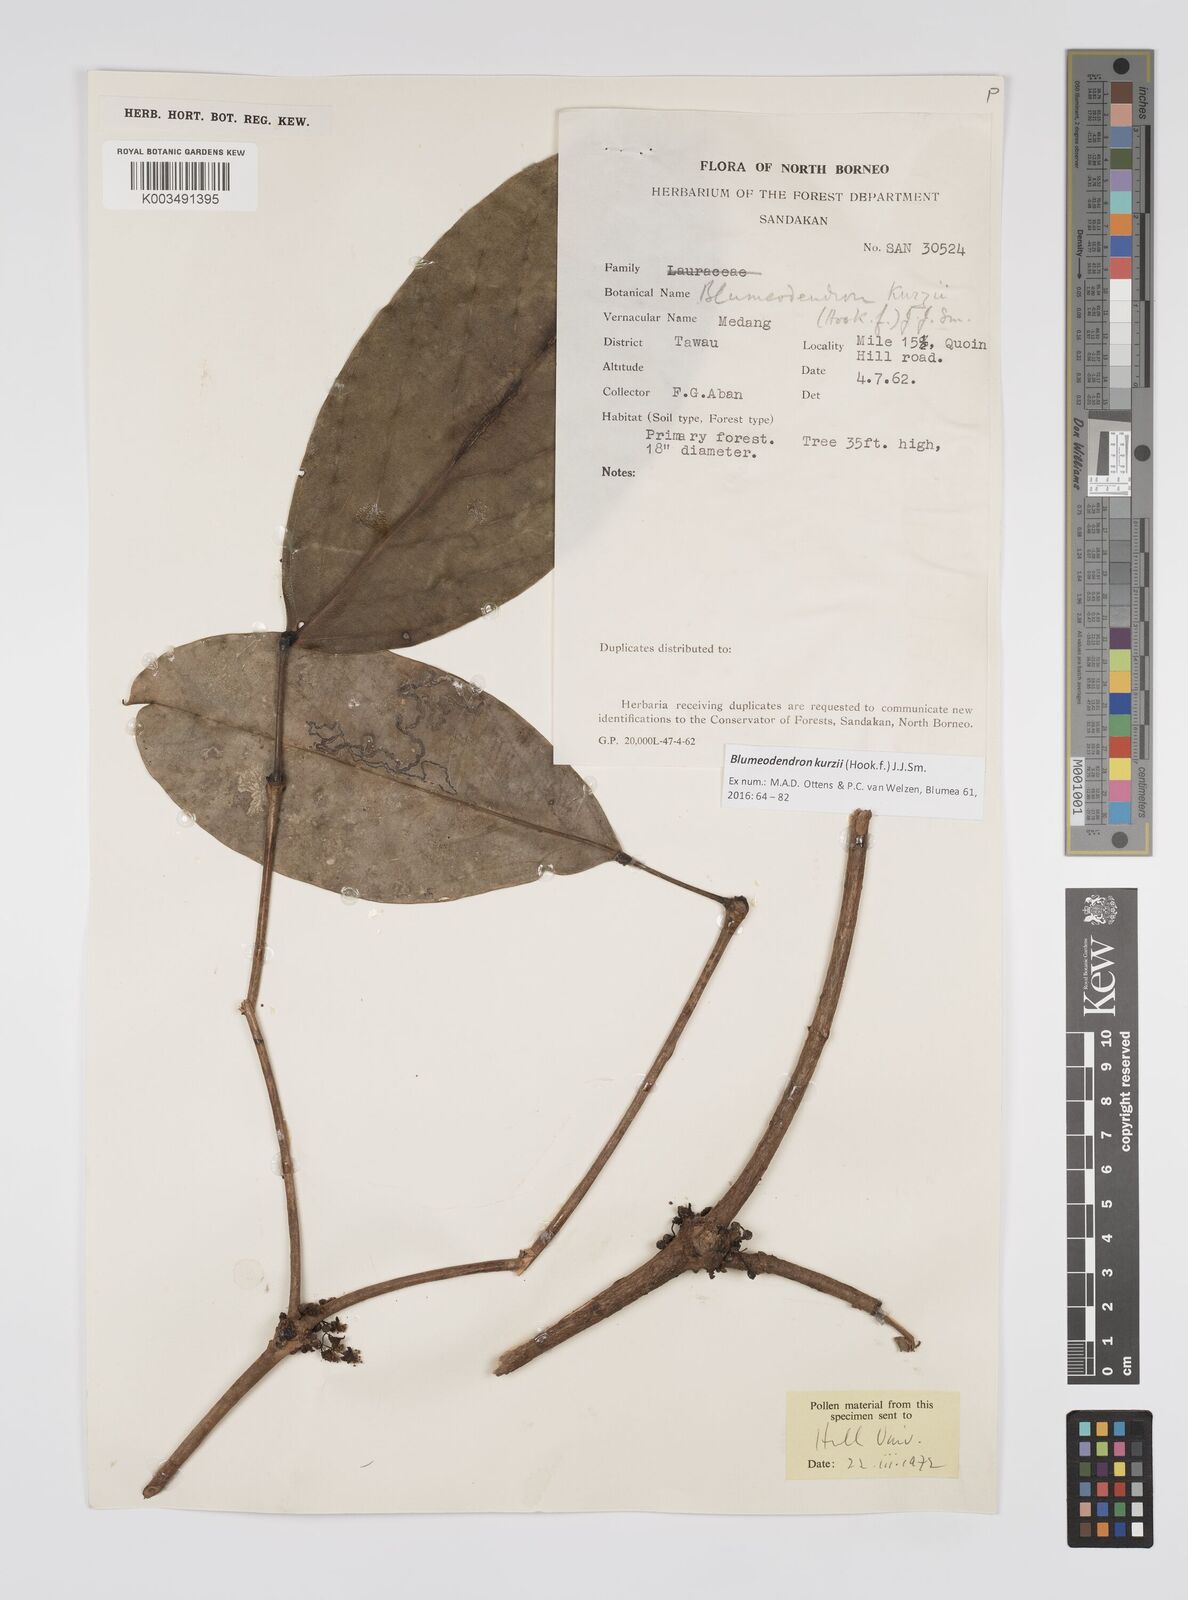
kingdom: Plantae
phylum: Tracheophyta
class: Magnoliopsida
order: Malpighiales
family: Euphorbiaceae
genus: Blumeodendron
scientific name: Blumeodendron kurzii
